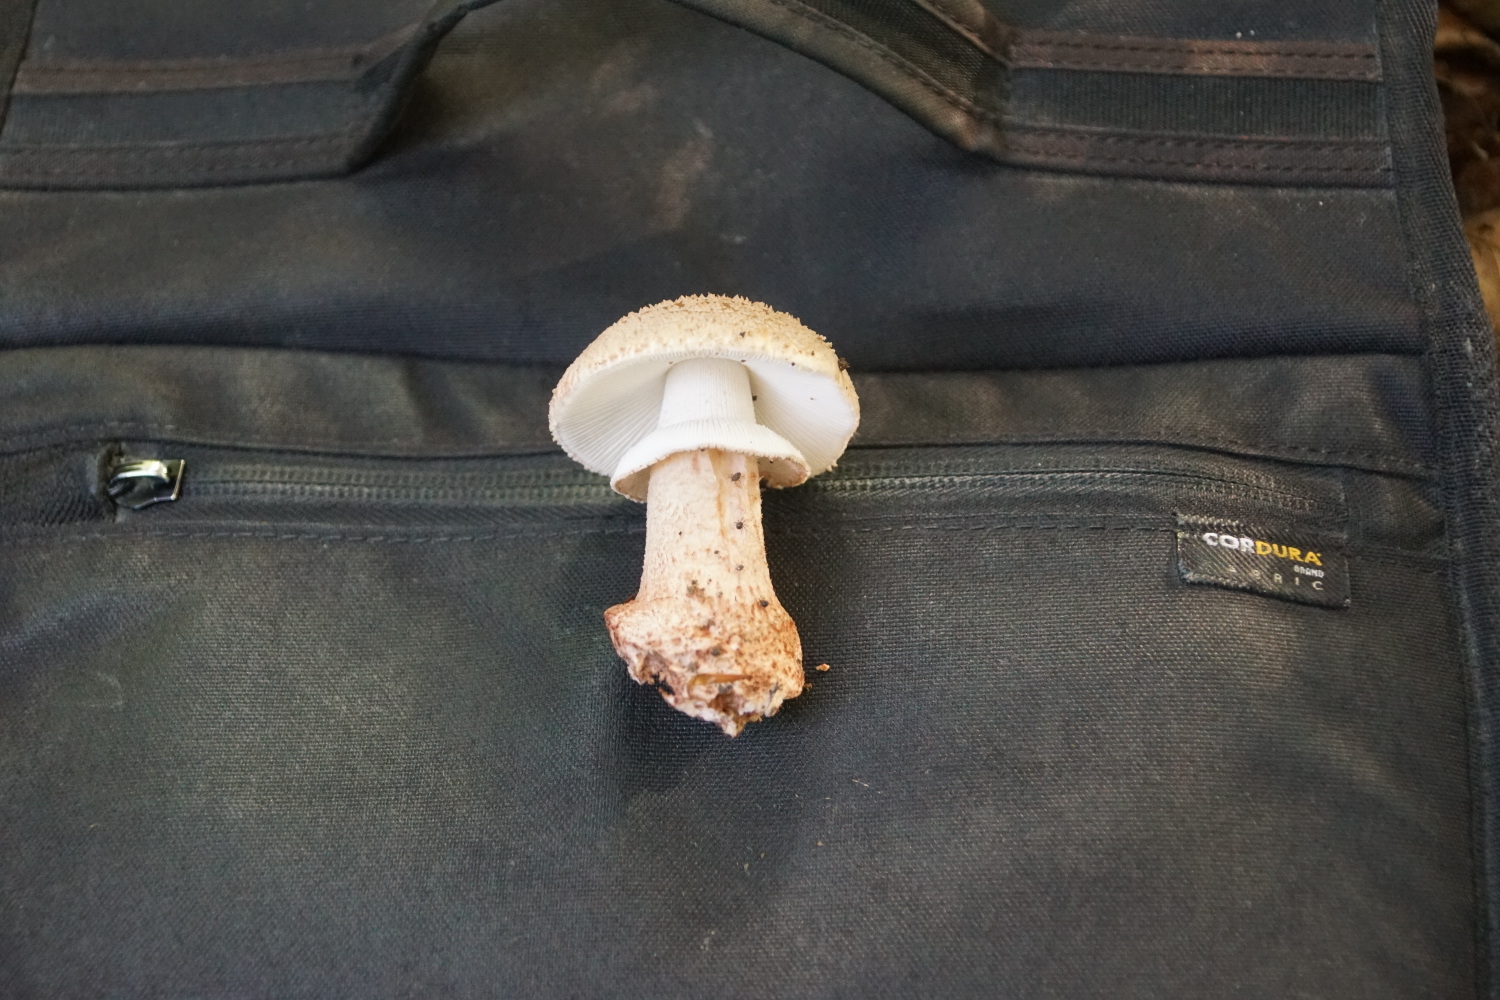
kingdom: Fungi
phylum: Basidiomycota
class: Agaricomycetes
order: Agaricales
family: Amanitaceae
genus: Amanita
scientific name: Amanita rubescens
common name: rødmende fluesvamp
